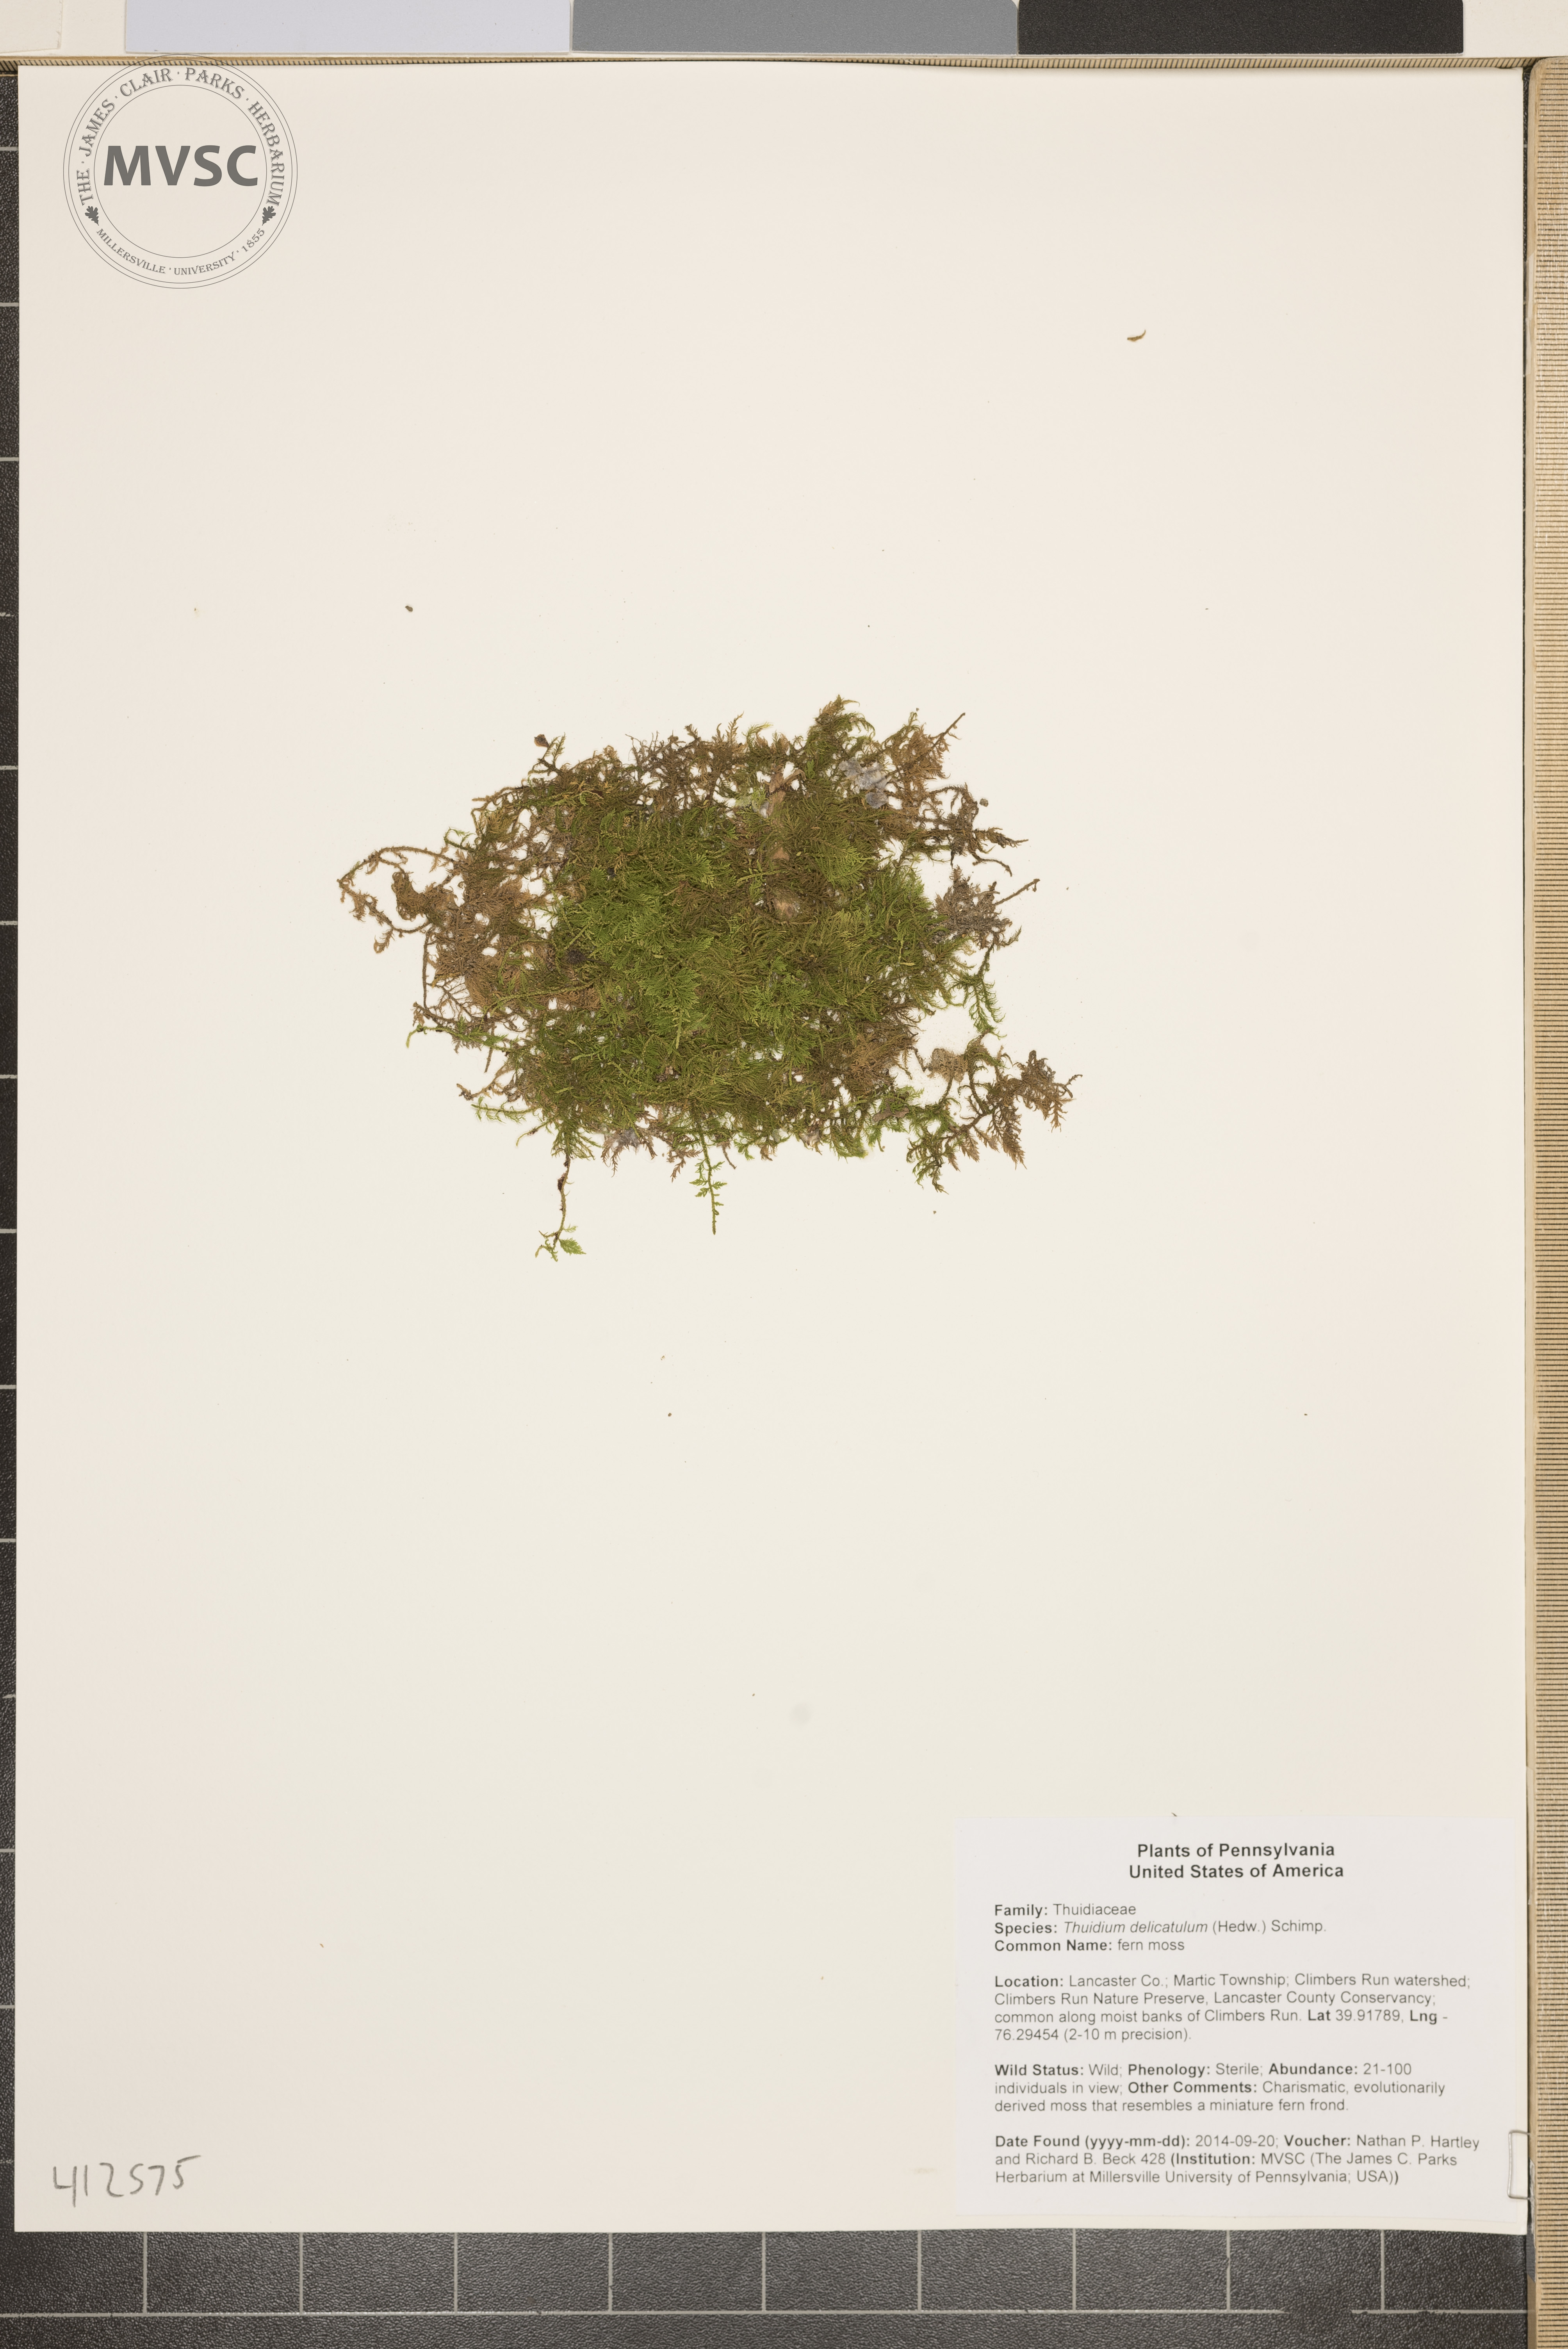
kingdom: Plantae
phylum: Bryophyta
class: Bryopsida
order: Hypnales
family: Thuidiaceae
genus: Thuidium
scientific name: Thuidium delicatulum
